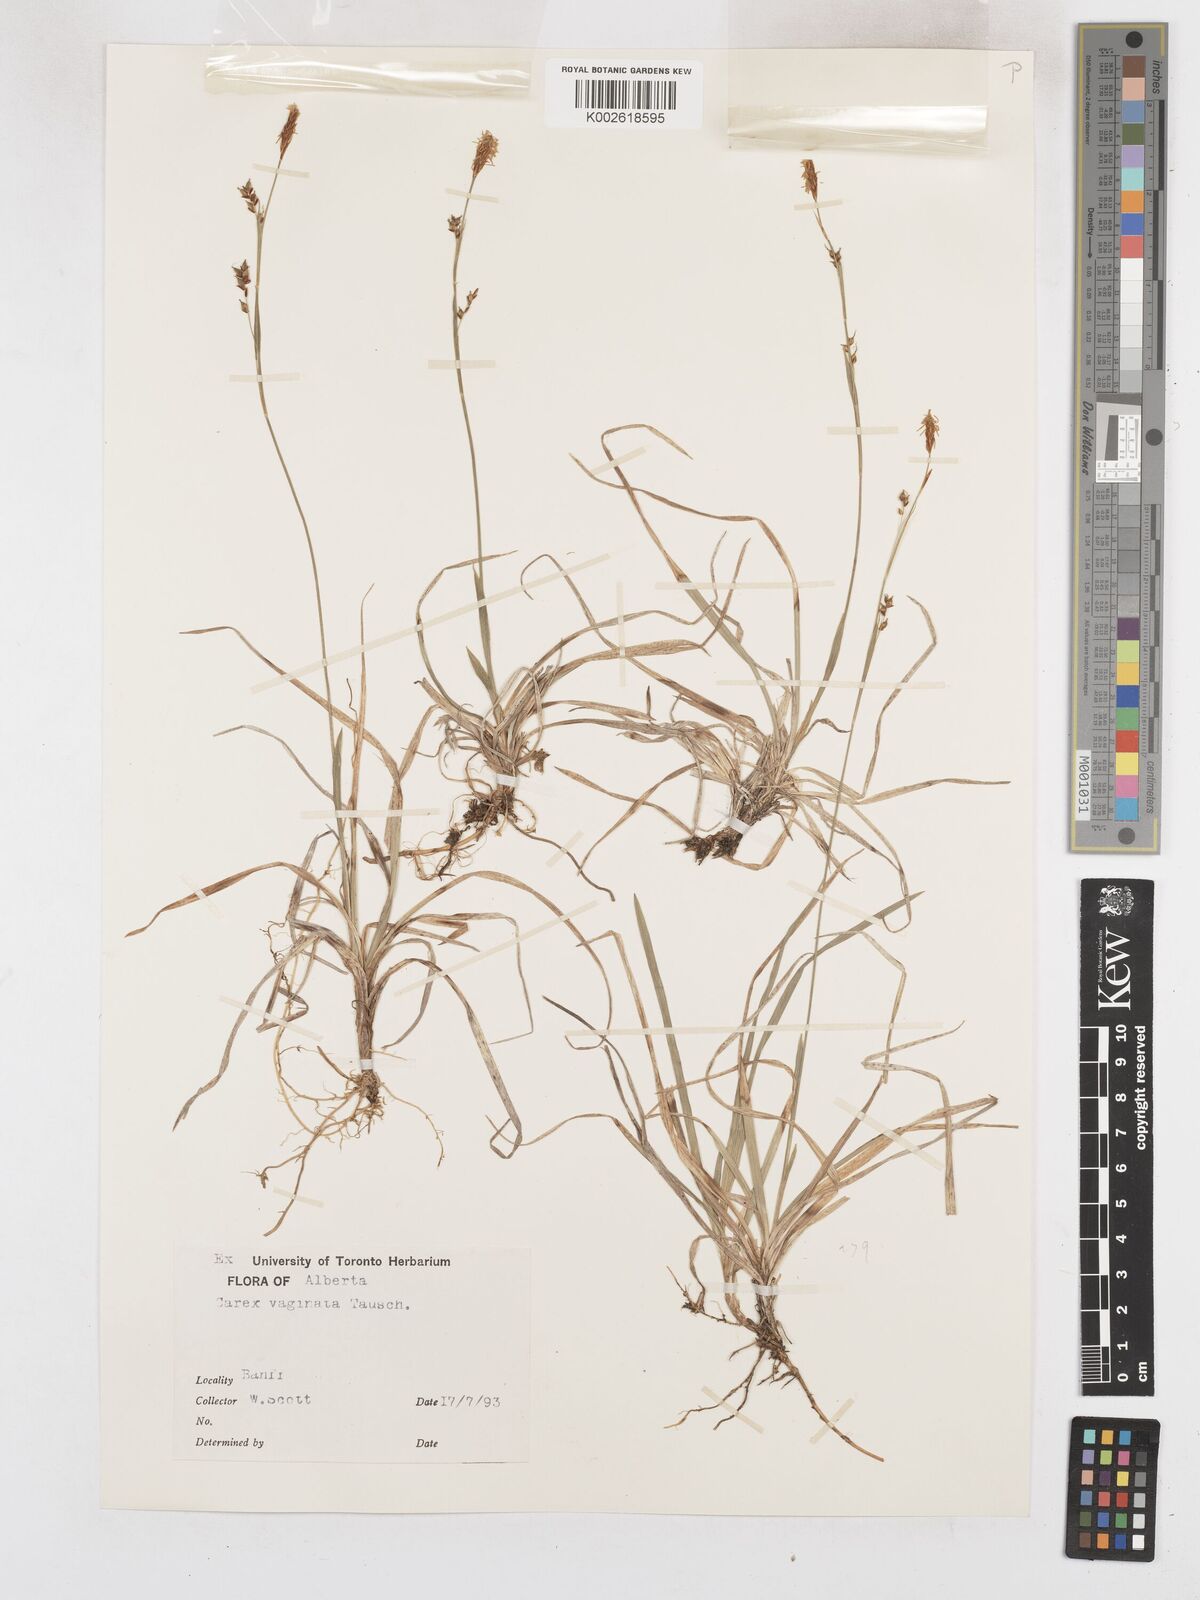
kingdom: Plantae
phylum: Tracheophyta
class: Liliopsida
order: Poales
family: Cyperaceae
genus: Carex
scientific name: Carex vaginata
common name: Sheathed sedge
